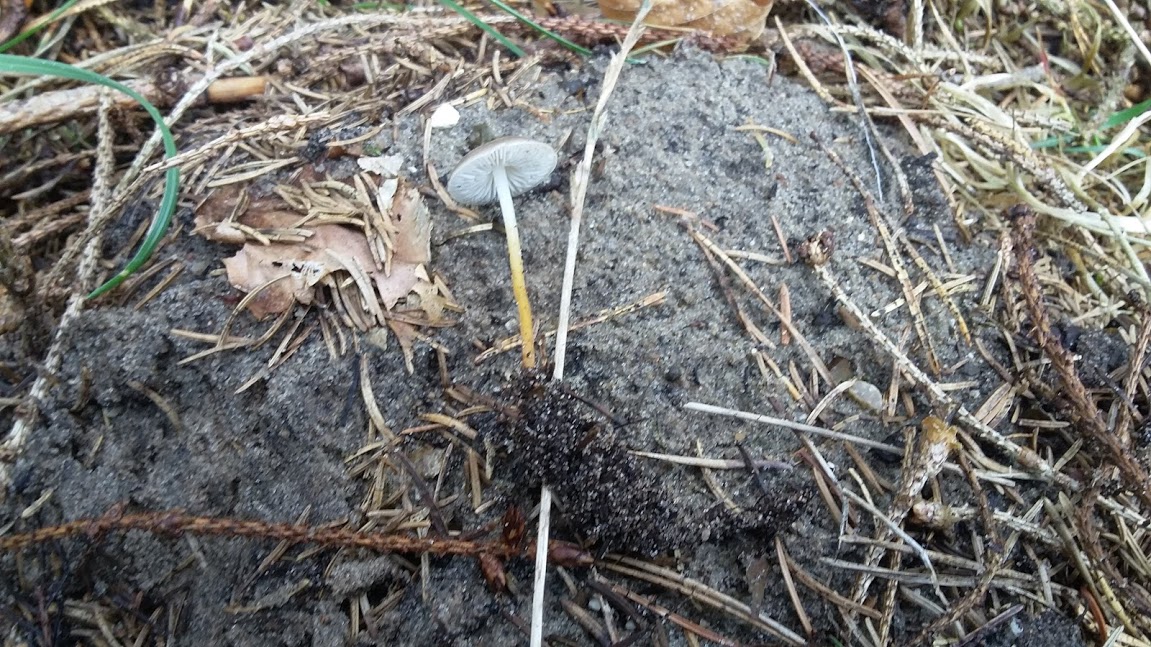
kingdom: Fungi
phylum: Basidiomycota
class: Agaricomycetes
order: Agaricales
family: Physalacriaceae
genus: Strobilurus
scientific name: Strobilurus
